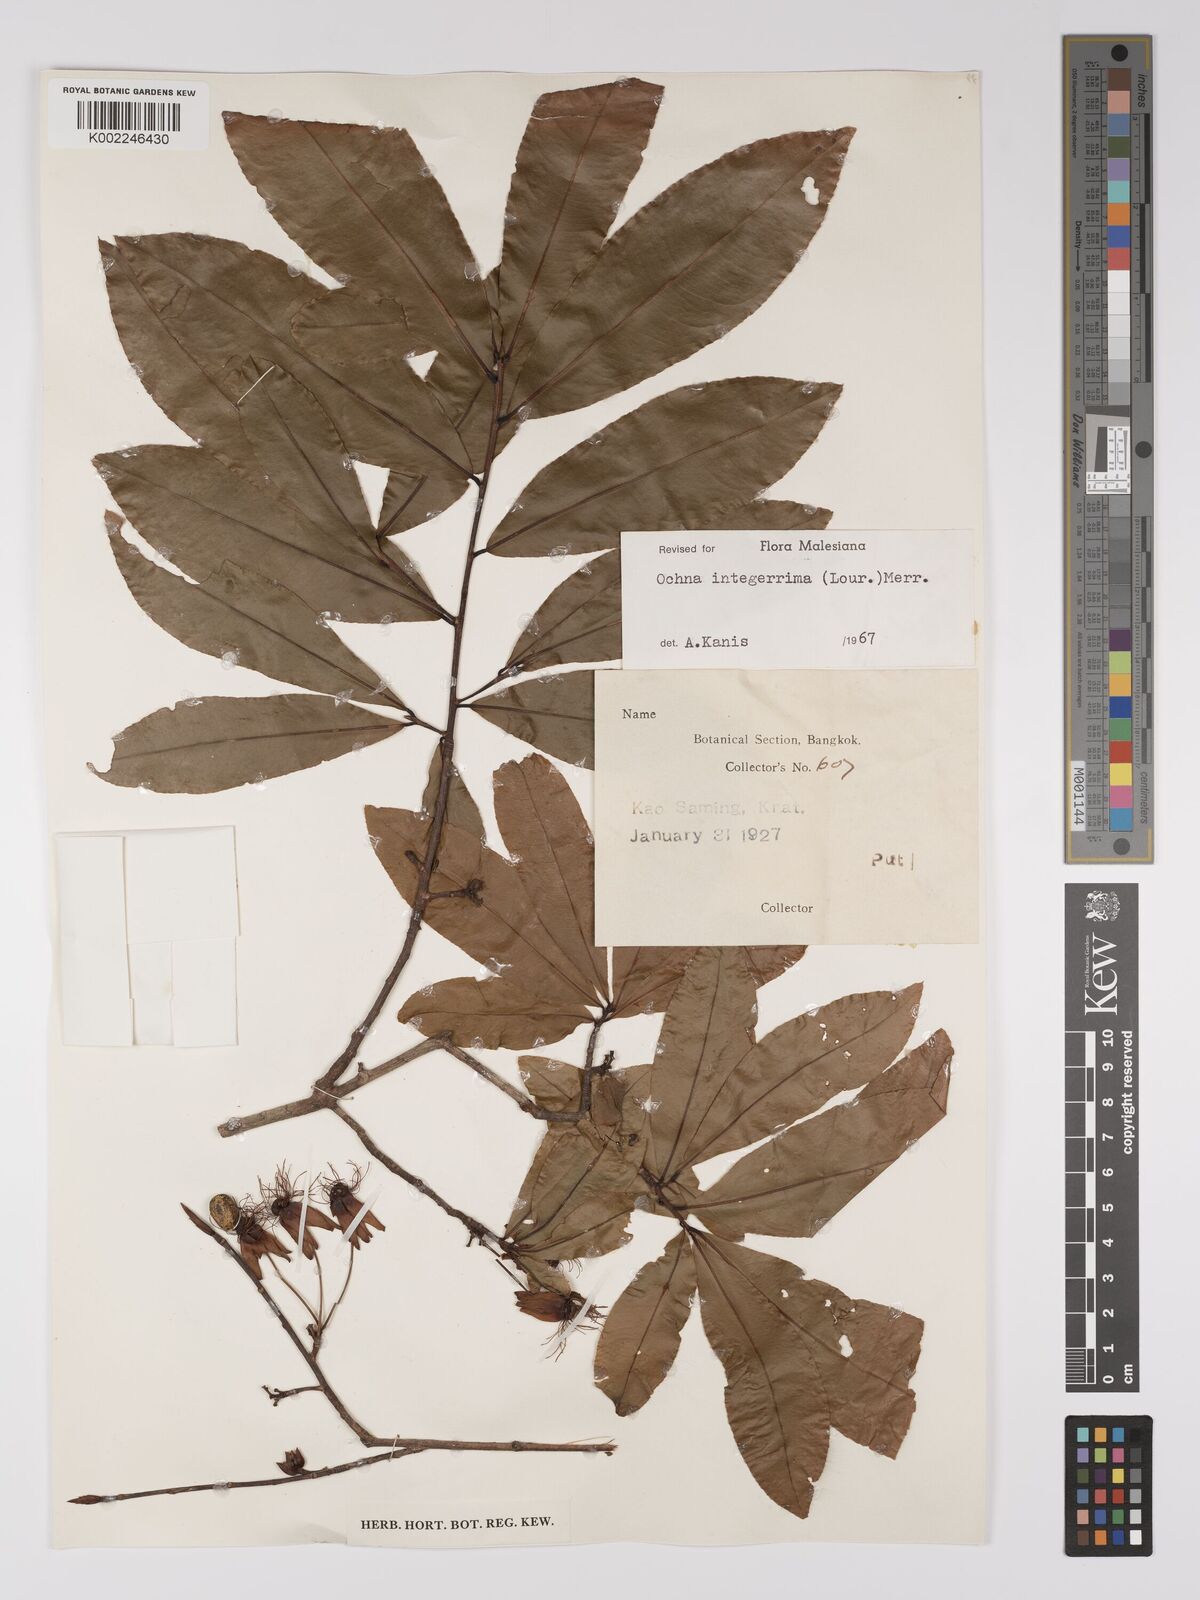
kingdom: Plantae
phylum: Tracheophyta
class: Magnoliopsida
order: Malpighiales
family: Ochnaceae
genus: Ochna
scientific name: Ochna integerrima
